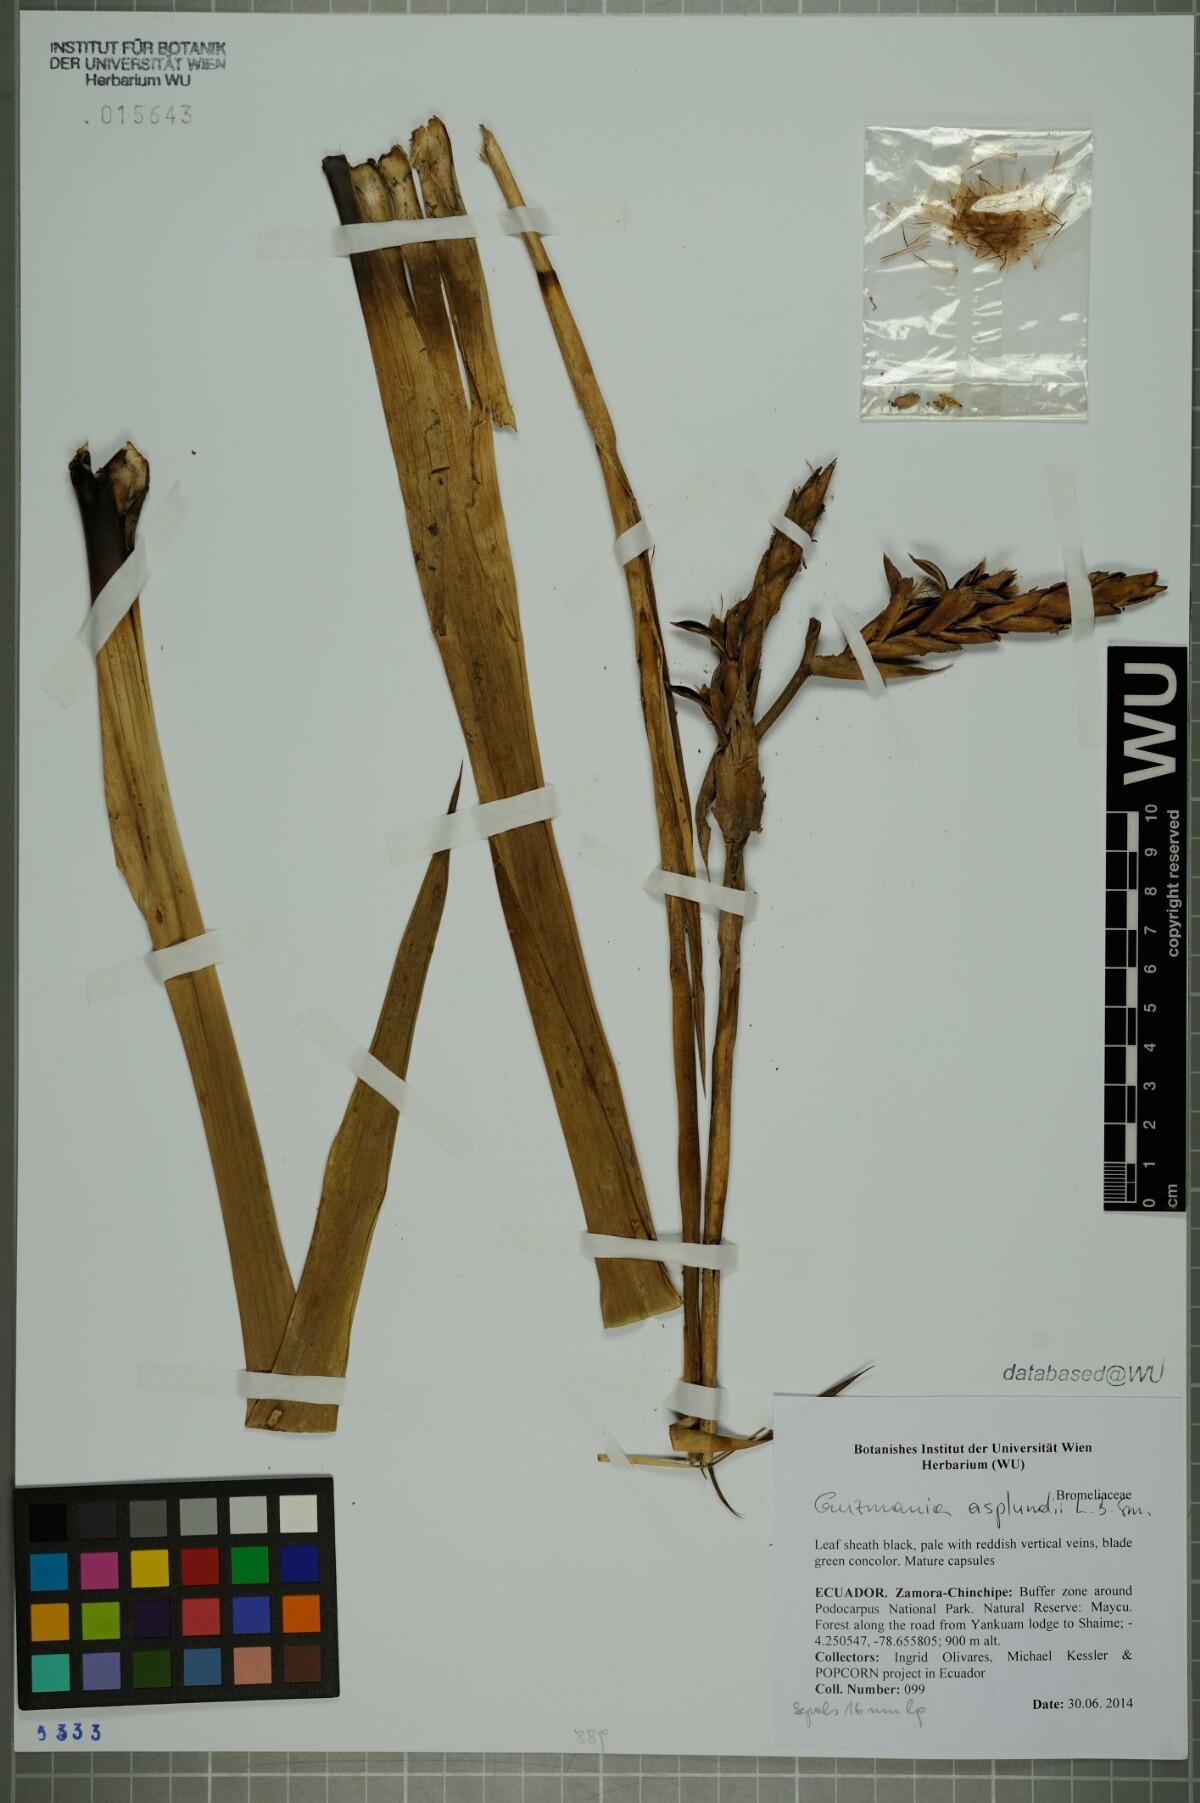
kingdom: Plantae
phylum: Tracheophyta
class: Liliopsida
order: Poales
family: Bromeliaceae
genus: Guzmania
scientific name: Guzmania asplundii
